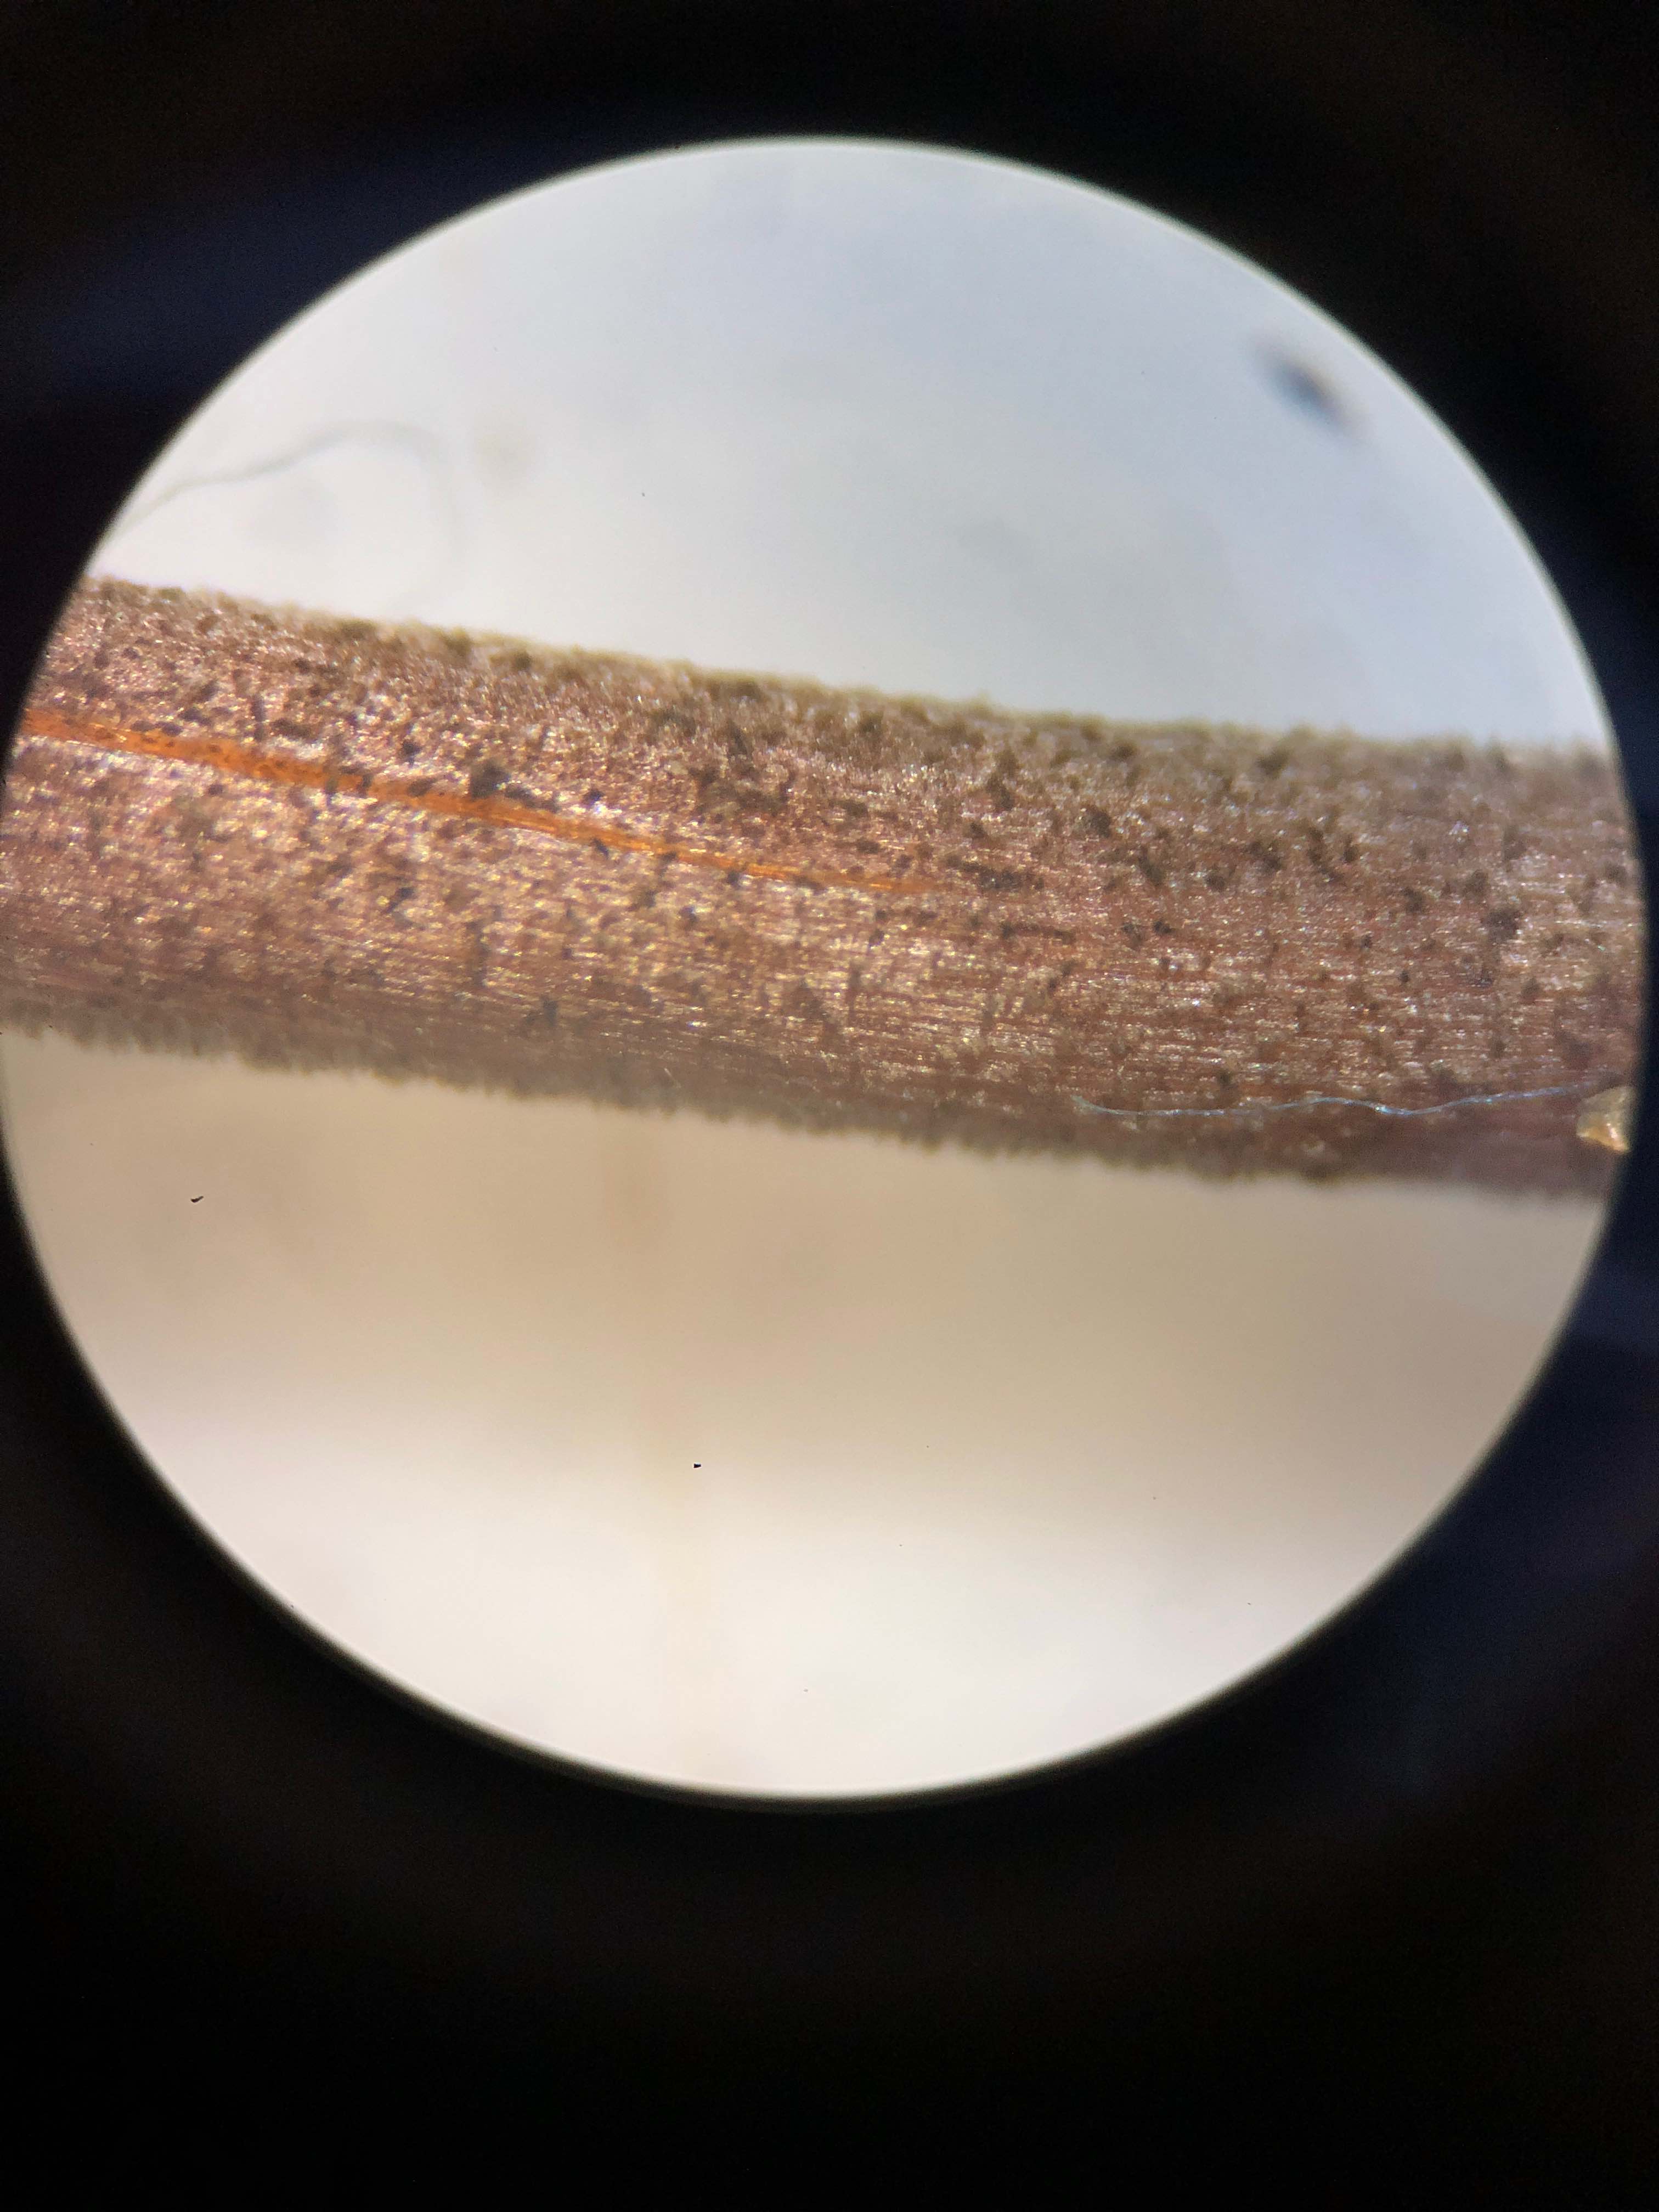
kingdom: Fungi
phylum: Basidiomycota
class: Agaricomycetes
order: Agaricales
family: Bolbitiaceae
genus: Panaeolus
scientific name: Panaeolus
